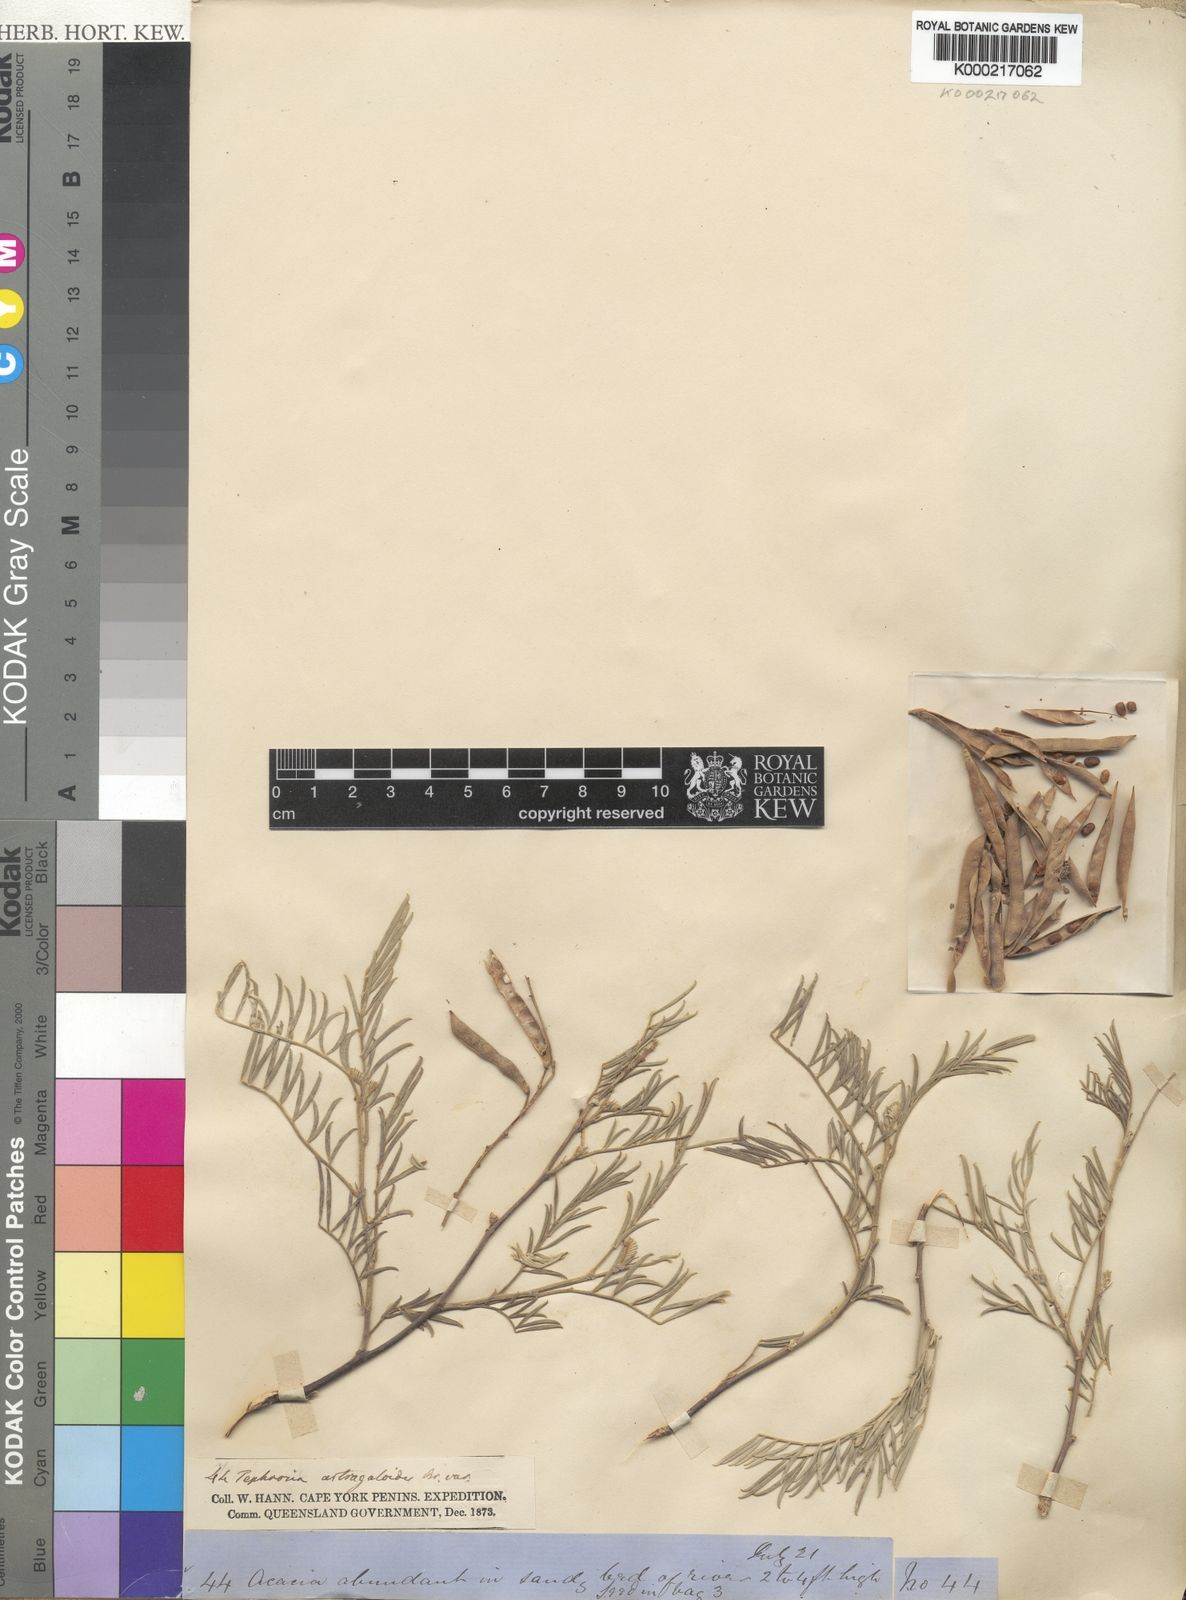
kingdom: Plantae
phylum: Tracheophyta
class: Magnoliopsida
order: Fabales
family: Fabaceae
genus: Tephrosia
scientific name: Tephrosia astragaloides
